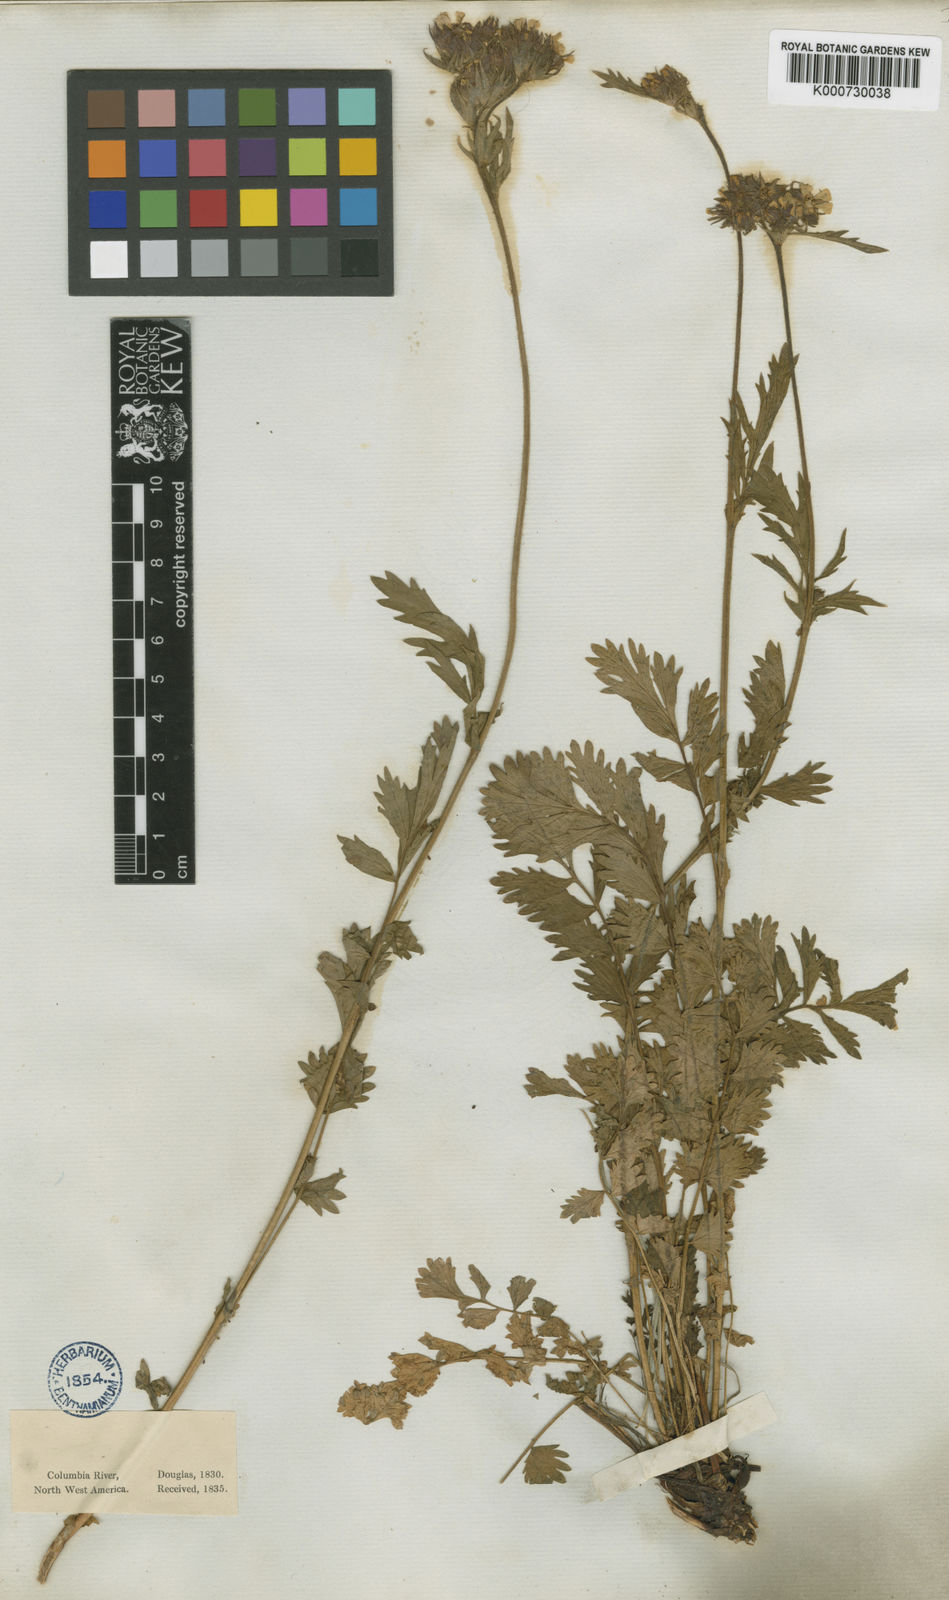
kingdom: Plantae
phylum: Tracheophyta
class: Magnoliopsida
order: Rosales
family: Rosaceae
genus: Potentilla
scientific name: Potentilla douglasii
